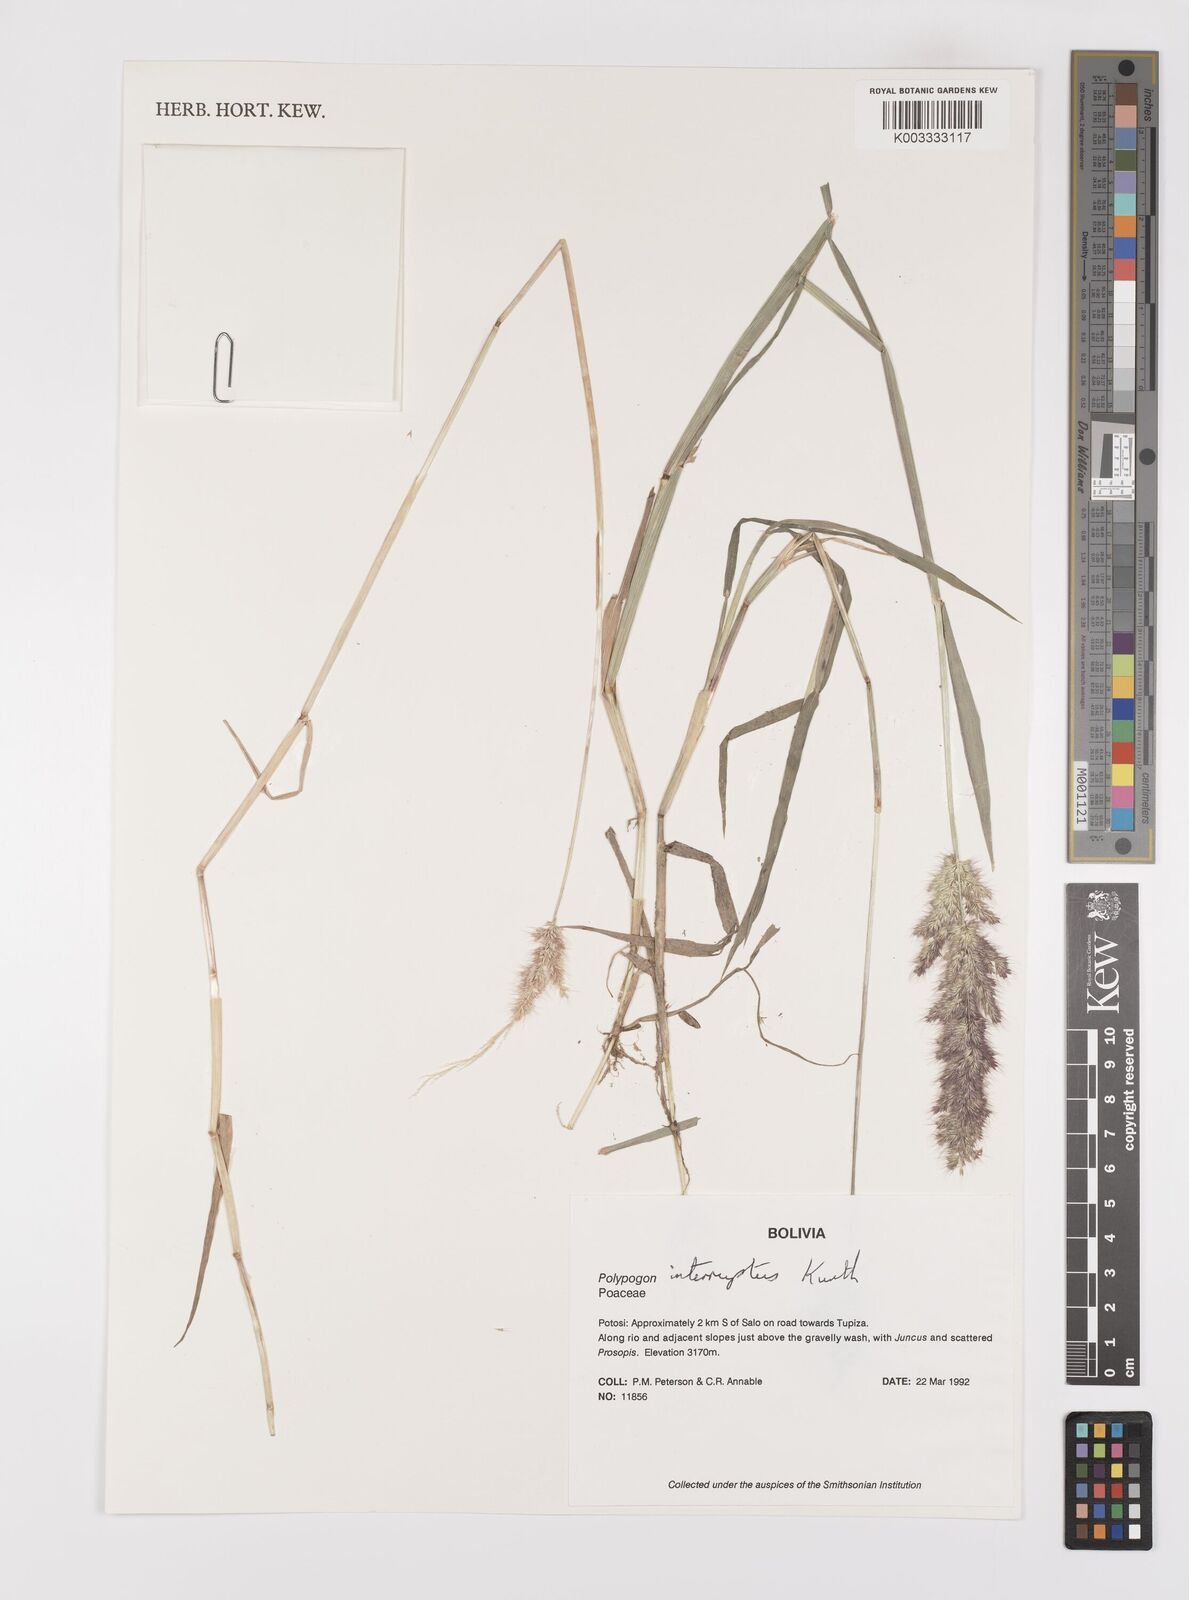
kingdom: Plantae
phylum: Tracheophyta
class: Liliopsida
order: Poales
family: Poaceae
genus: Polypogon
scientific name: Polypogon interruptus
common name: Ditch polypogon
